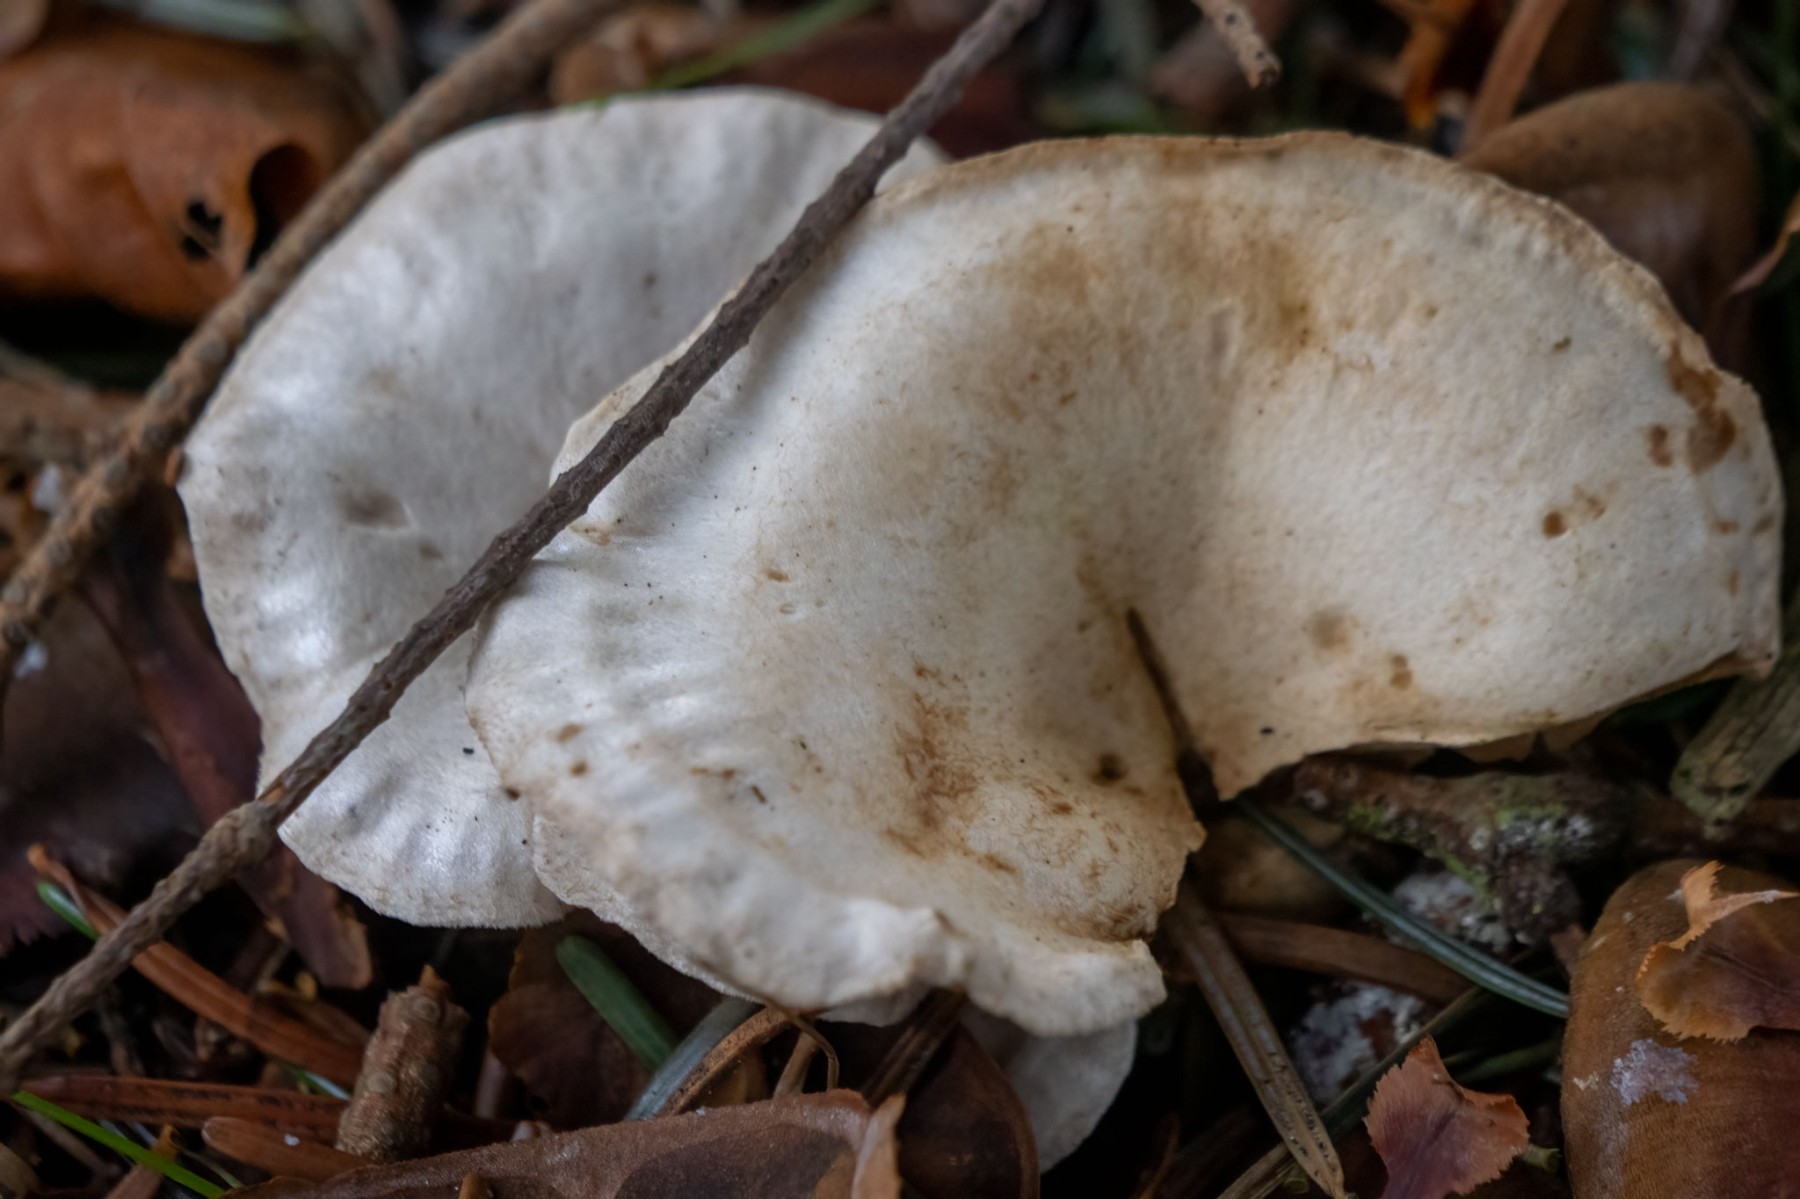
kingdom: Fungi
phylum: Basidiomycota
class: Agaricomycetes
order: Agaricales
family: Crepidotaceae
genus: Crepidotus
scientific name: Crepidotus autochthonus
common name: skæv muslingesvamp
